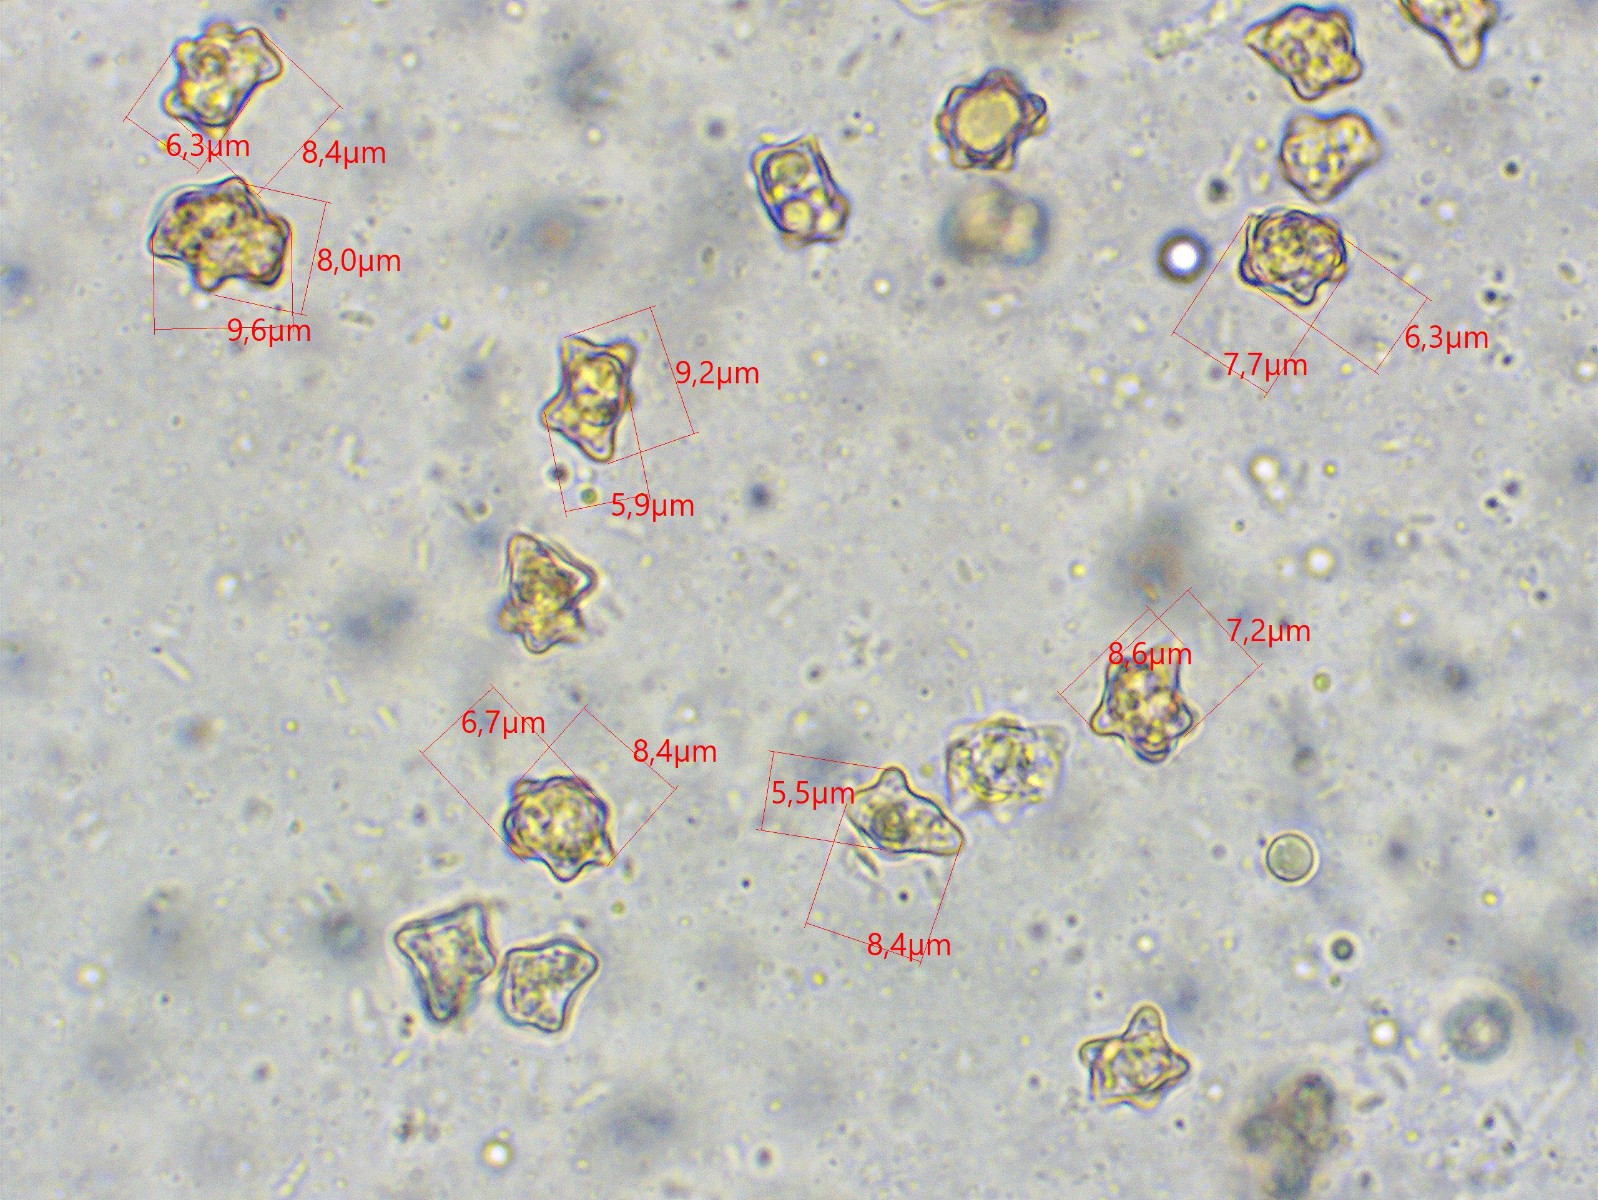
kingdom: Fungi
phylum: Basidiomycota
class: Agaricomycetes
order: Agaricales
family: Inocybaceae
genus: Inocybe
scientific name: Inocybe napipes
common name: roeknoldet trævlhat
